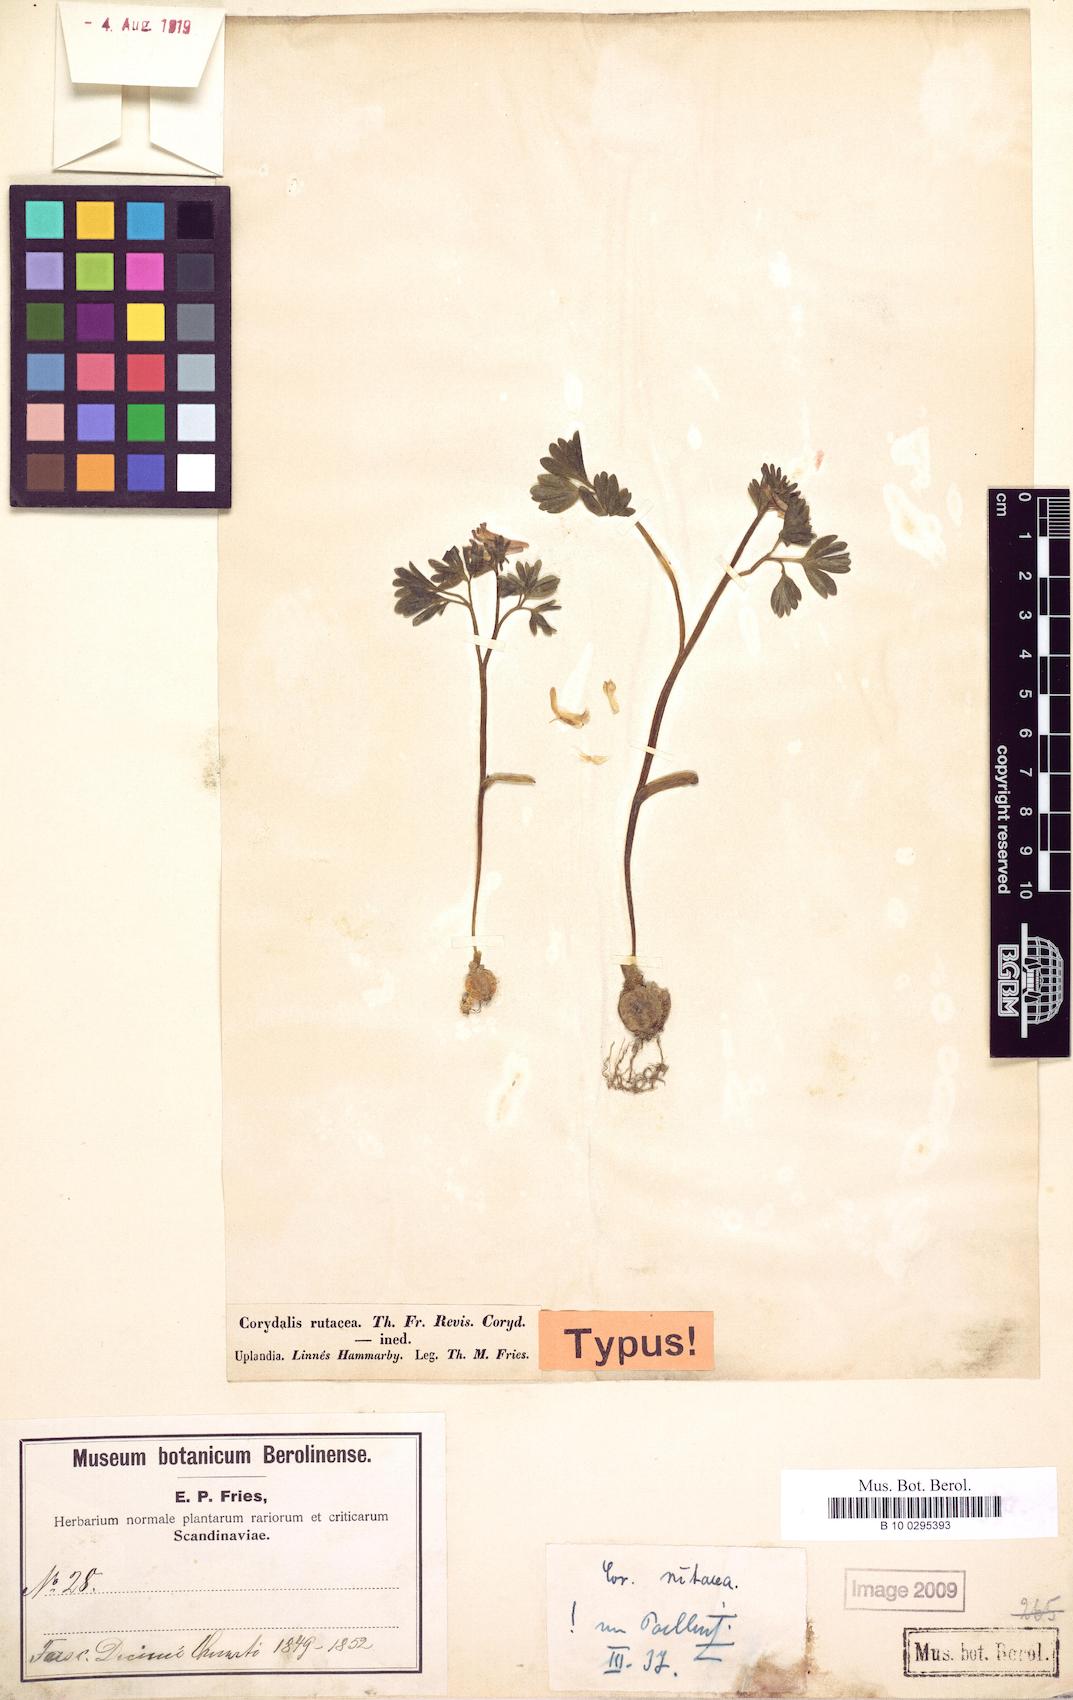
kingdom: Plantae
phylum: Tracheophyta
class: Magnoliopsida
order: Ranunculales
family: Papaveraceae
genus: Corydalis
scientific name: Corydalis rutacea
